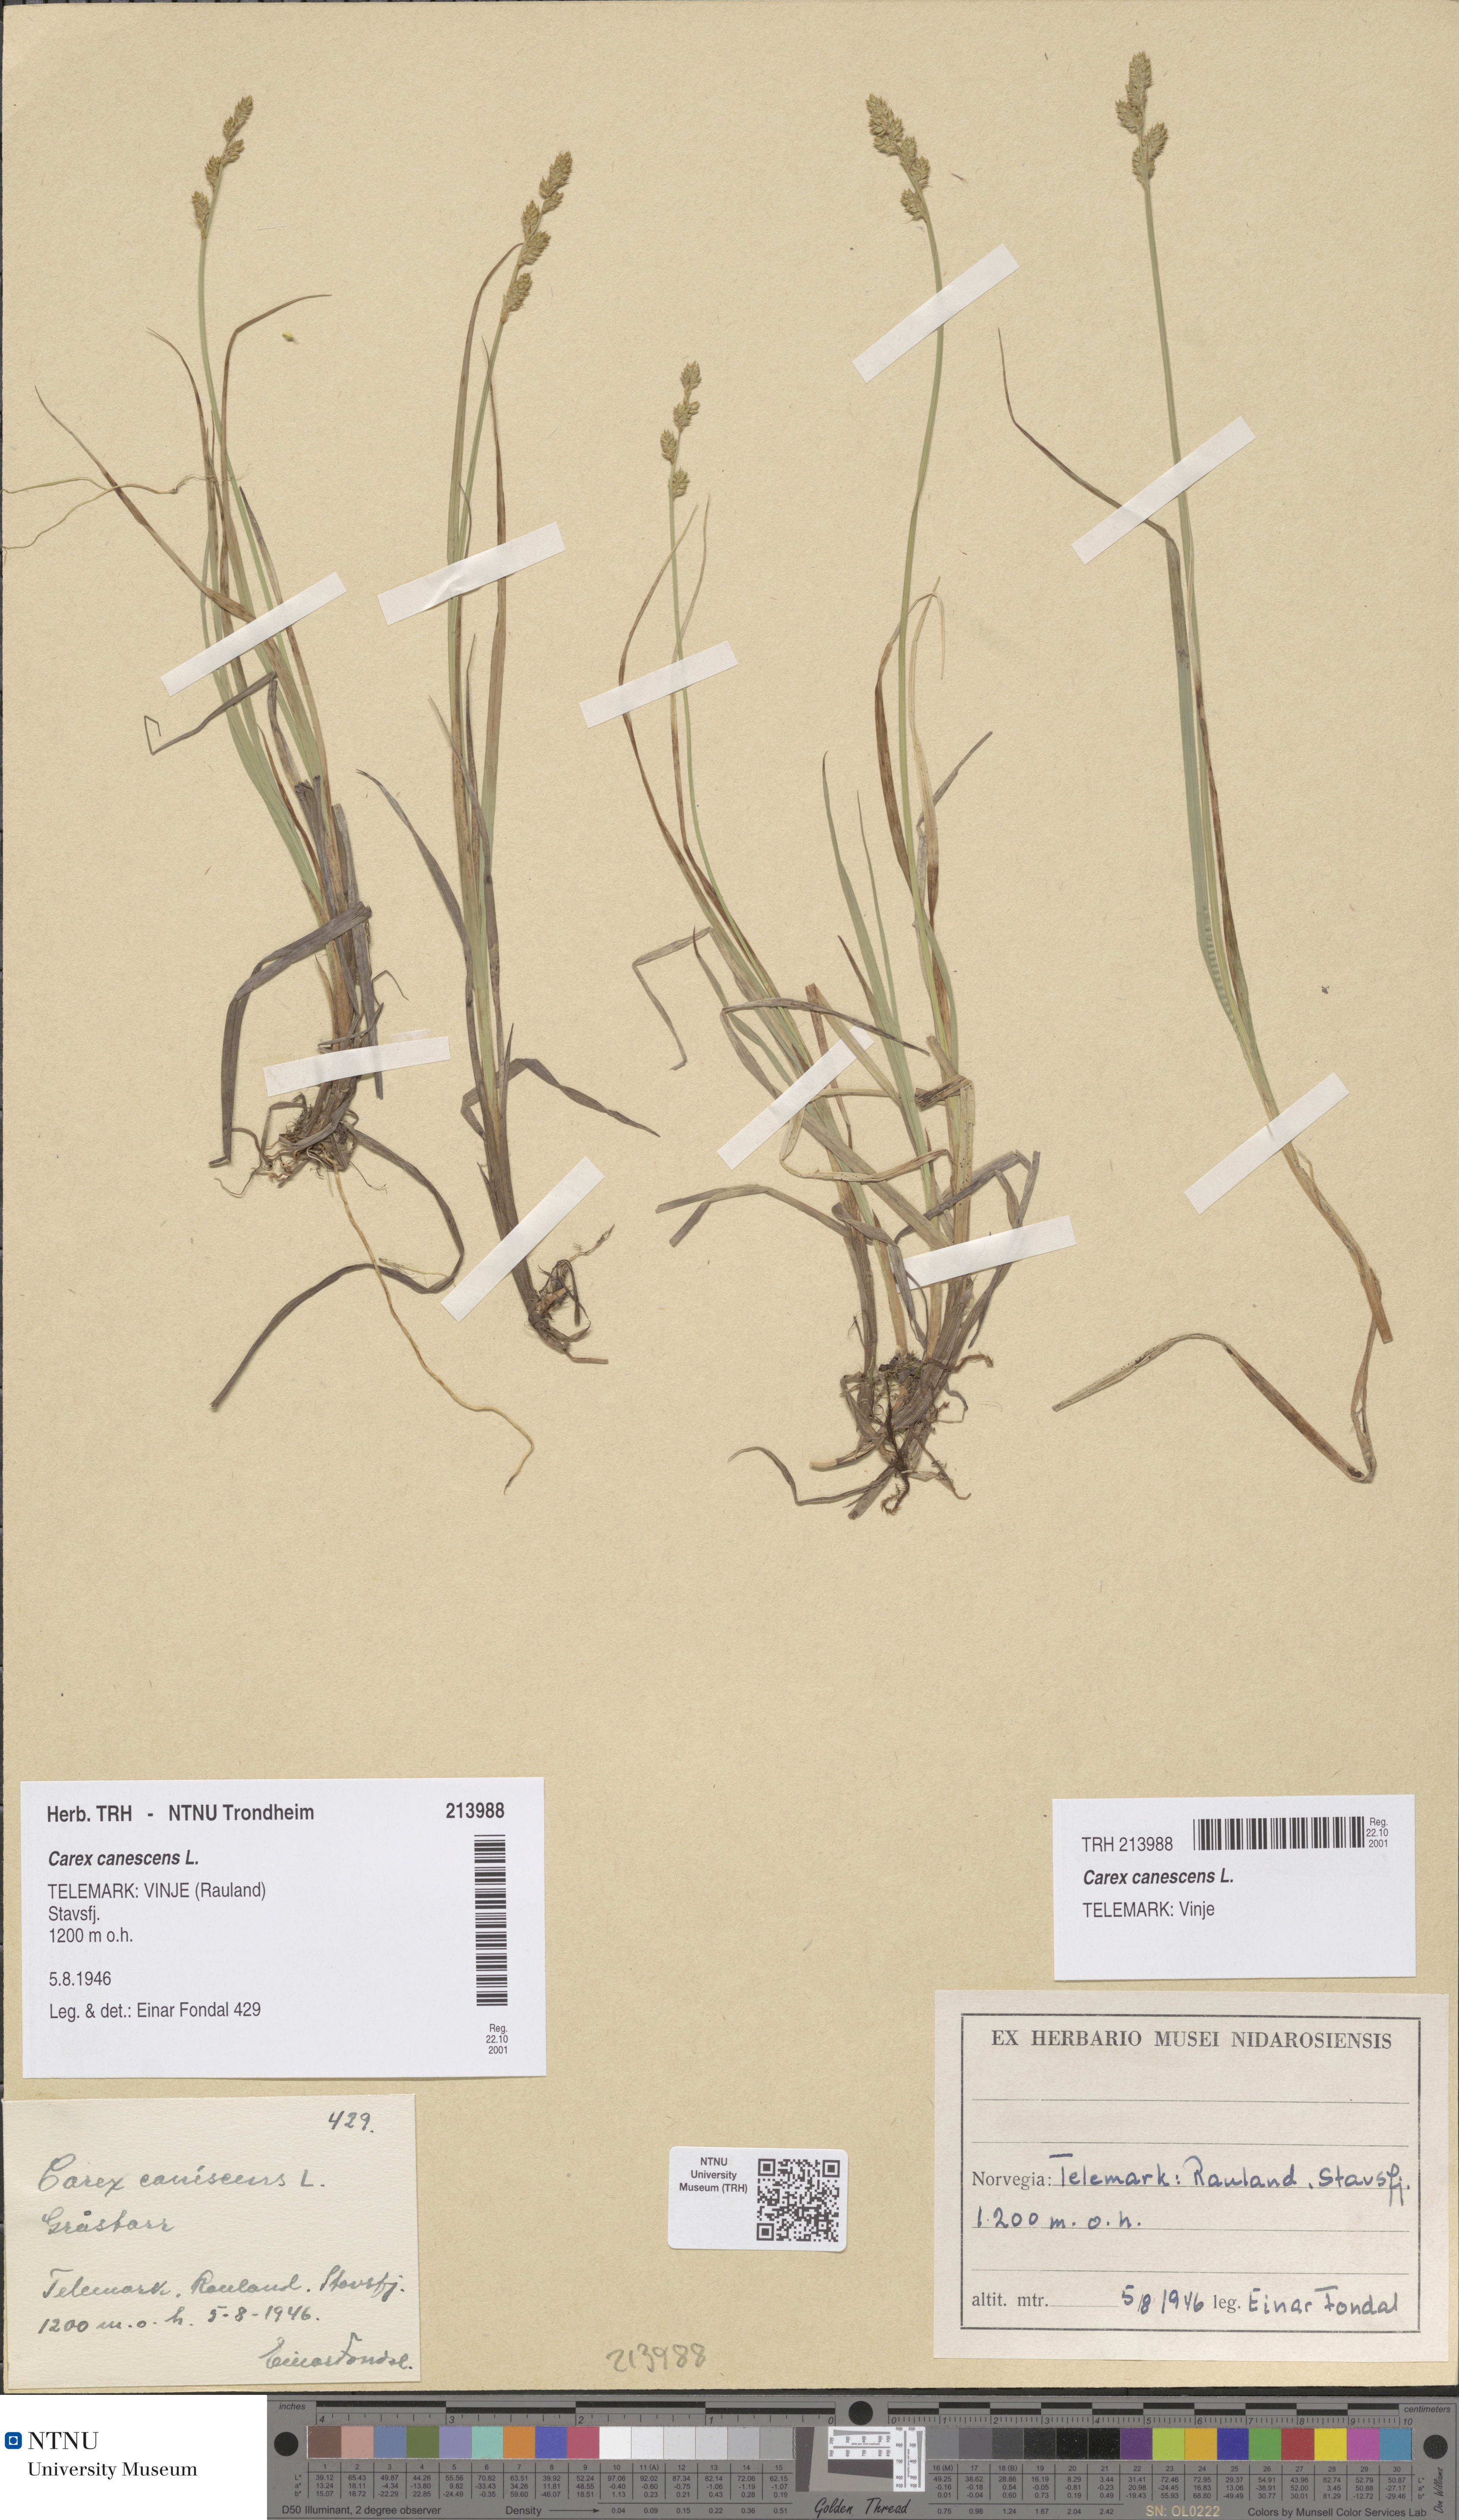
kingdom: Plantae
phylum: Tracheophyta
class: Liliopsida
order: Poales
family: Cyperaceae
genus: Carex
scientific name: Carex canescens
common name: White sedge
